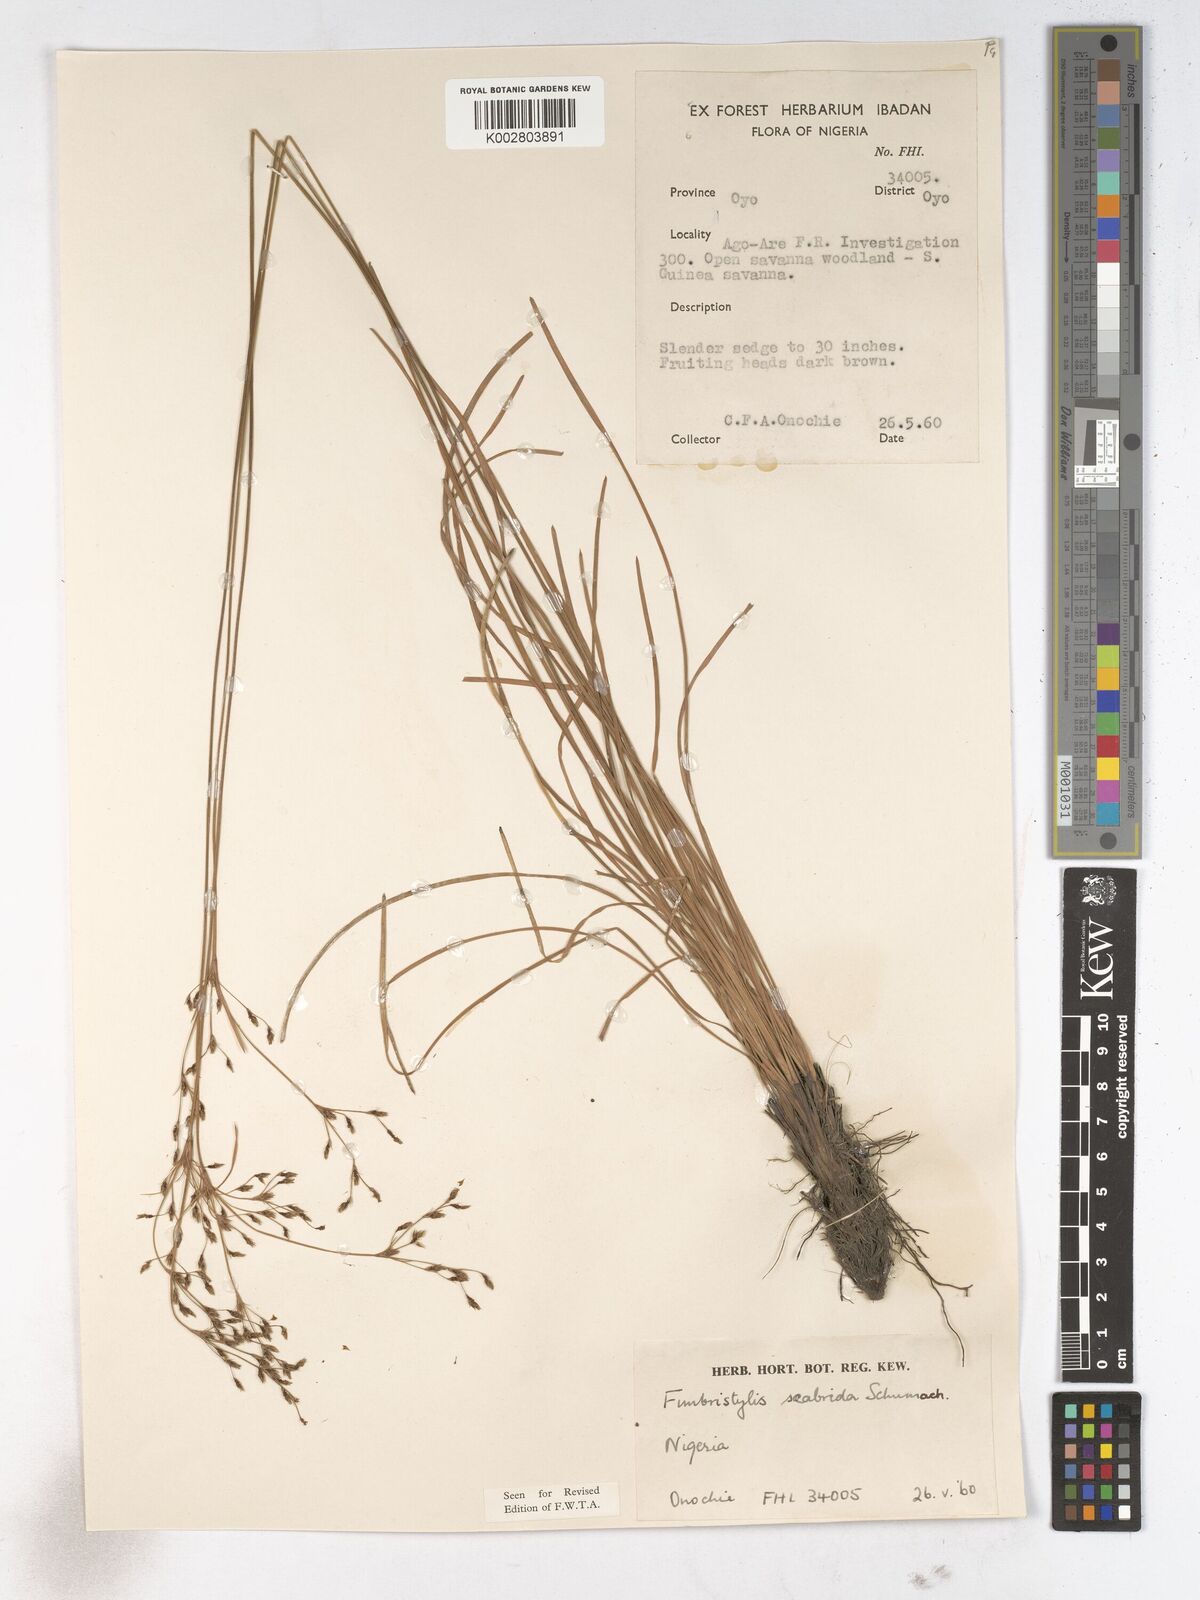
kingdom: Plantae
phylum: Tracheophyta
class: Liliopsida
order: Poales
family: Cyperaceae
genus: Fimbristylis
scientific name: Fimbristylis scabrida
